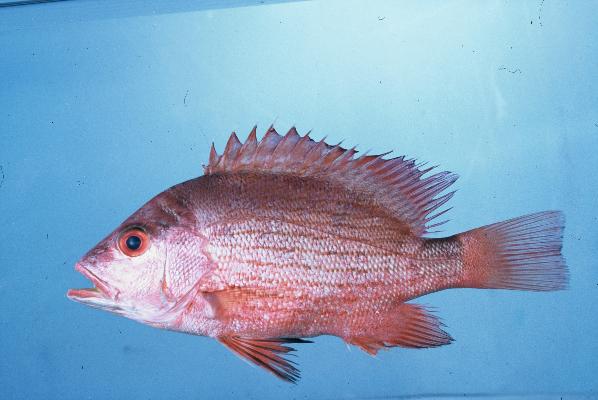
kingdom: Animalia
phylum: Chordata
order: Perciformes
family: Lutjanidae
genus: Lutjanus
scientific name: Lutjanus sanguineus
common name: Humphead snapper
